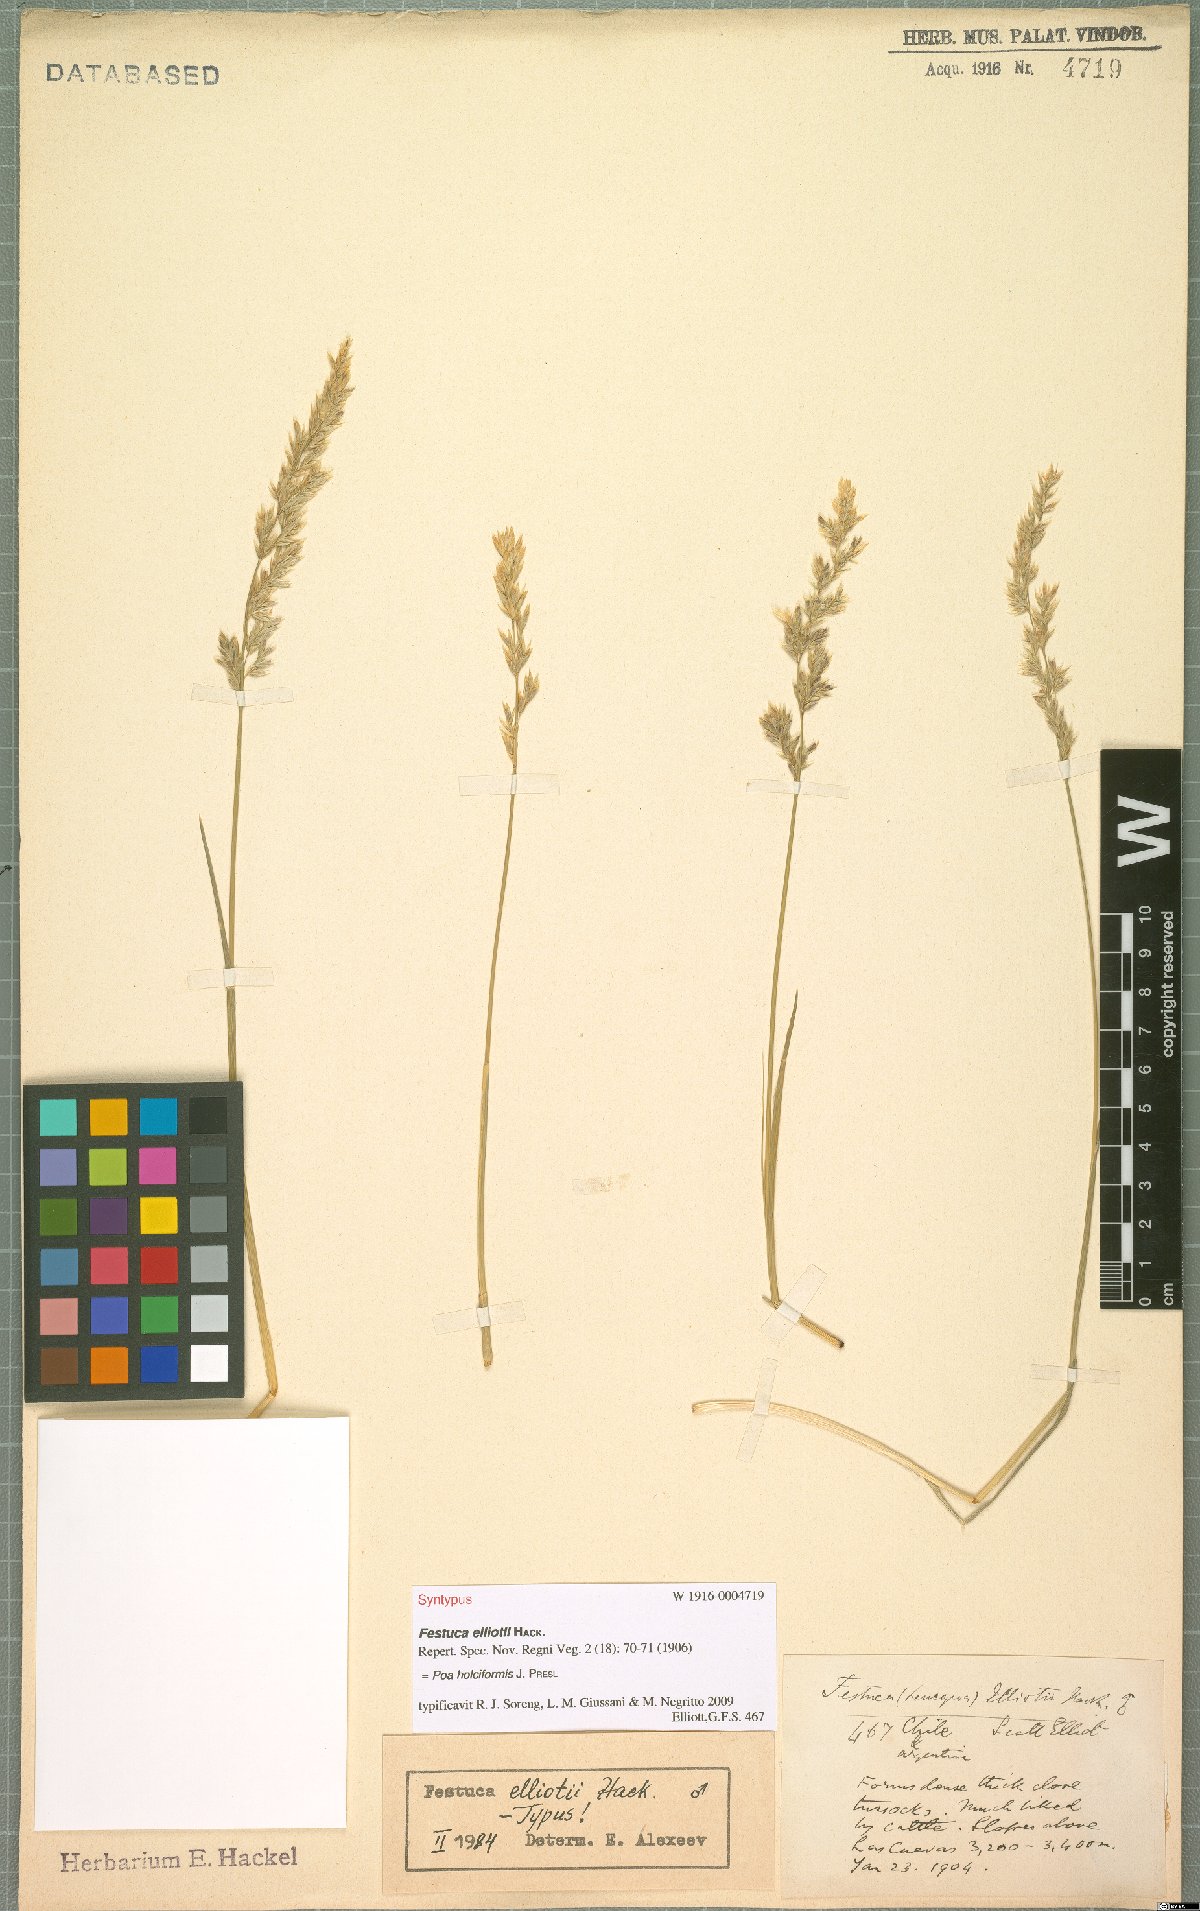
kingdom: Plantae
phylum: Tracheophyta
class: Liliopsida
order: Poales
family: Poaceae
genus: Poa
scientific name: Poa holciformis
